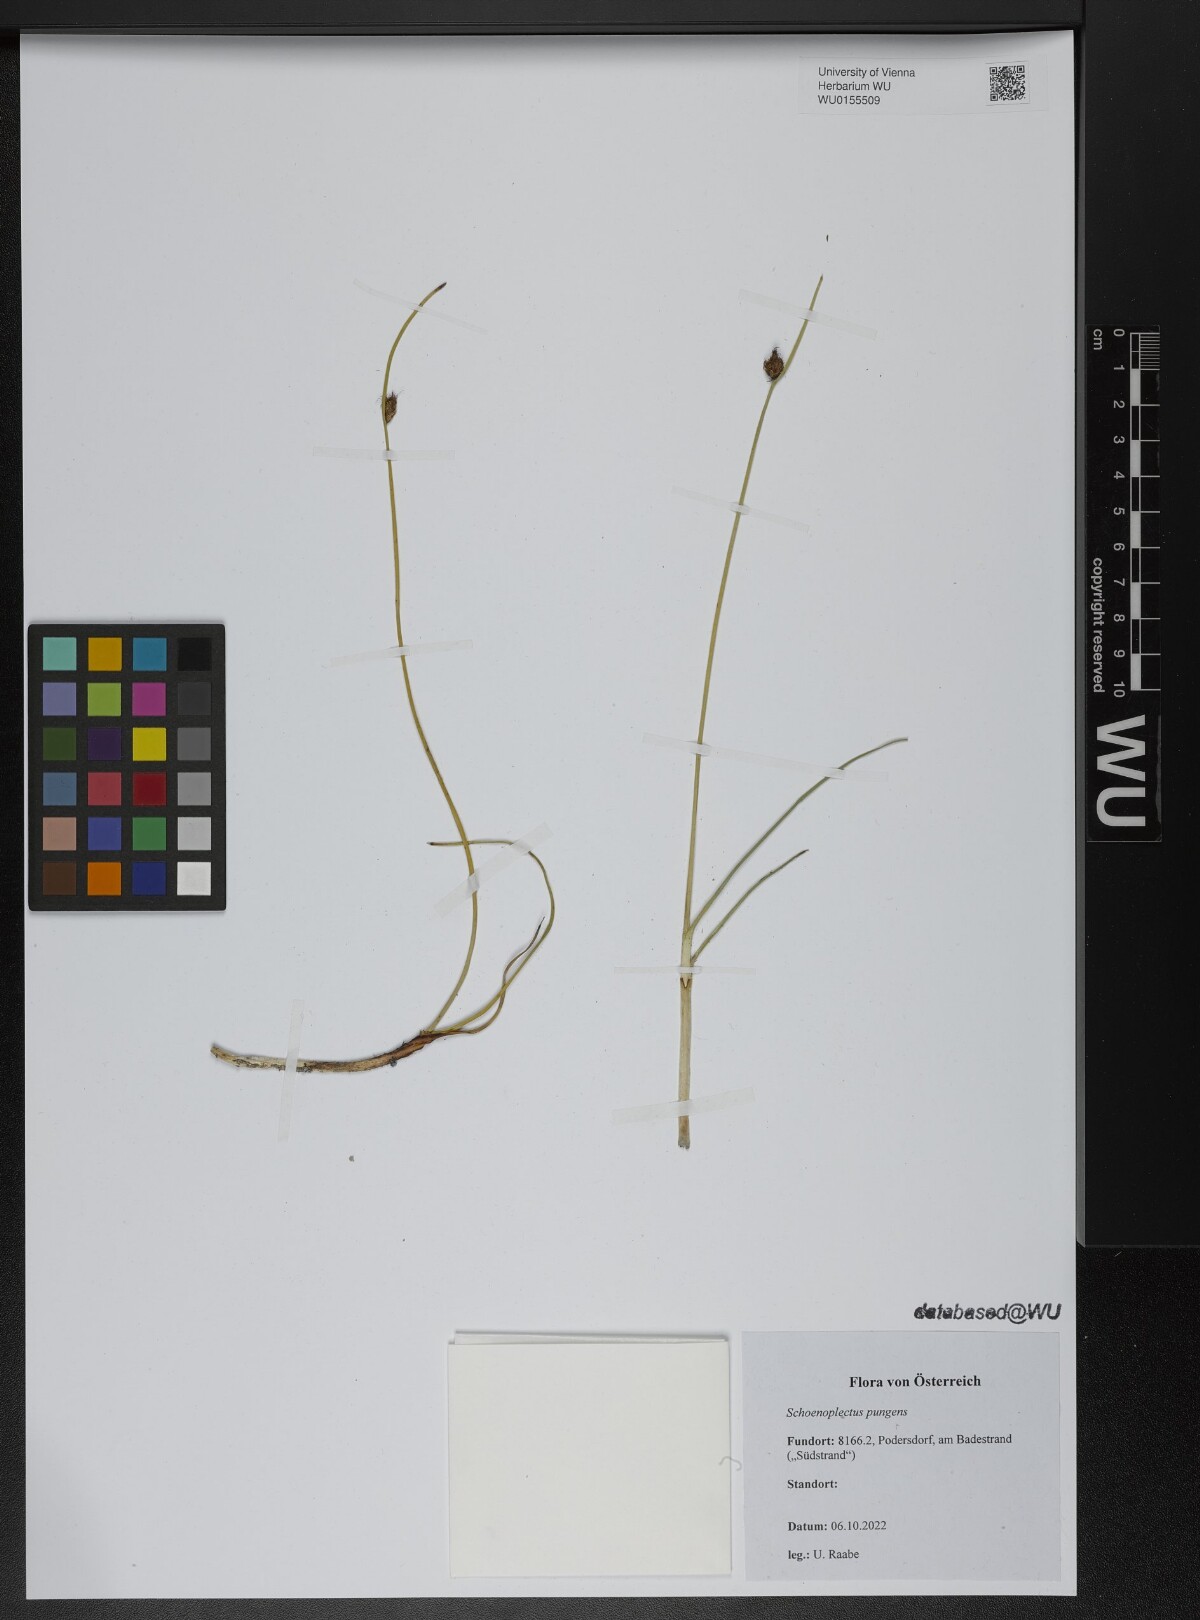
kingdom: Plantae
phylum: Tracheophyta
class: Liliopsida
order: Poales
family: Cyperaceae
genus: Schoenoplectus
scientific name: Schoenoplectus pungens
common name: Sharp club-rush
